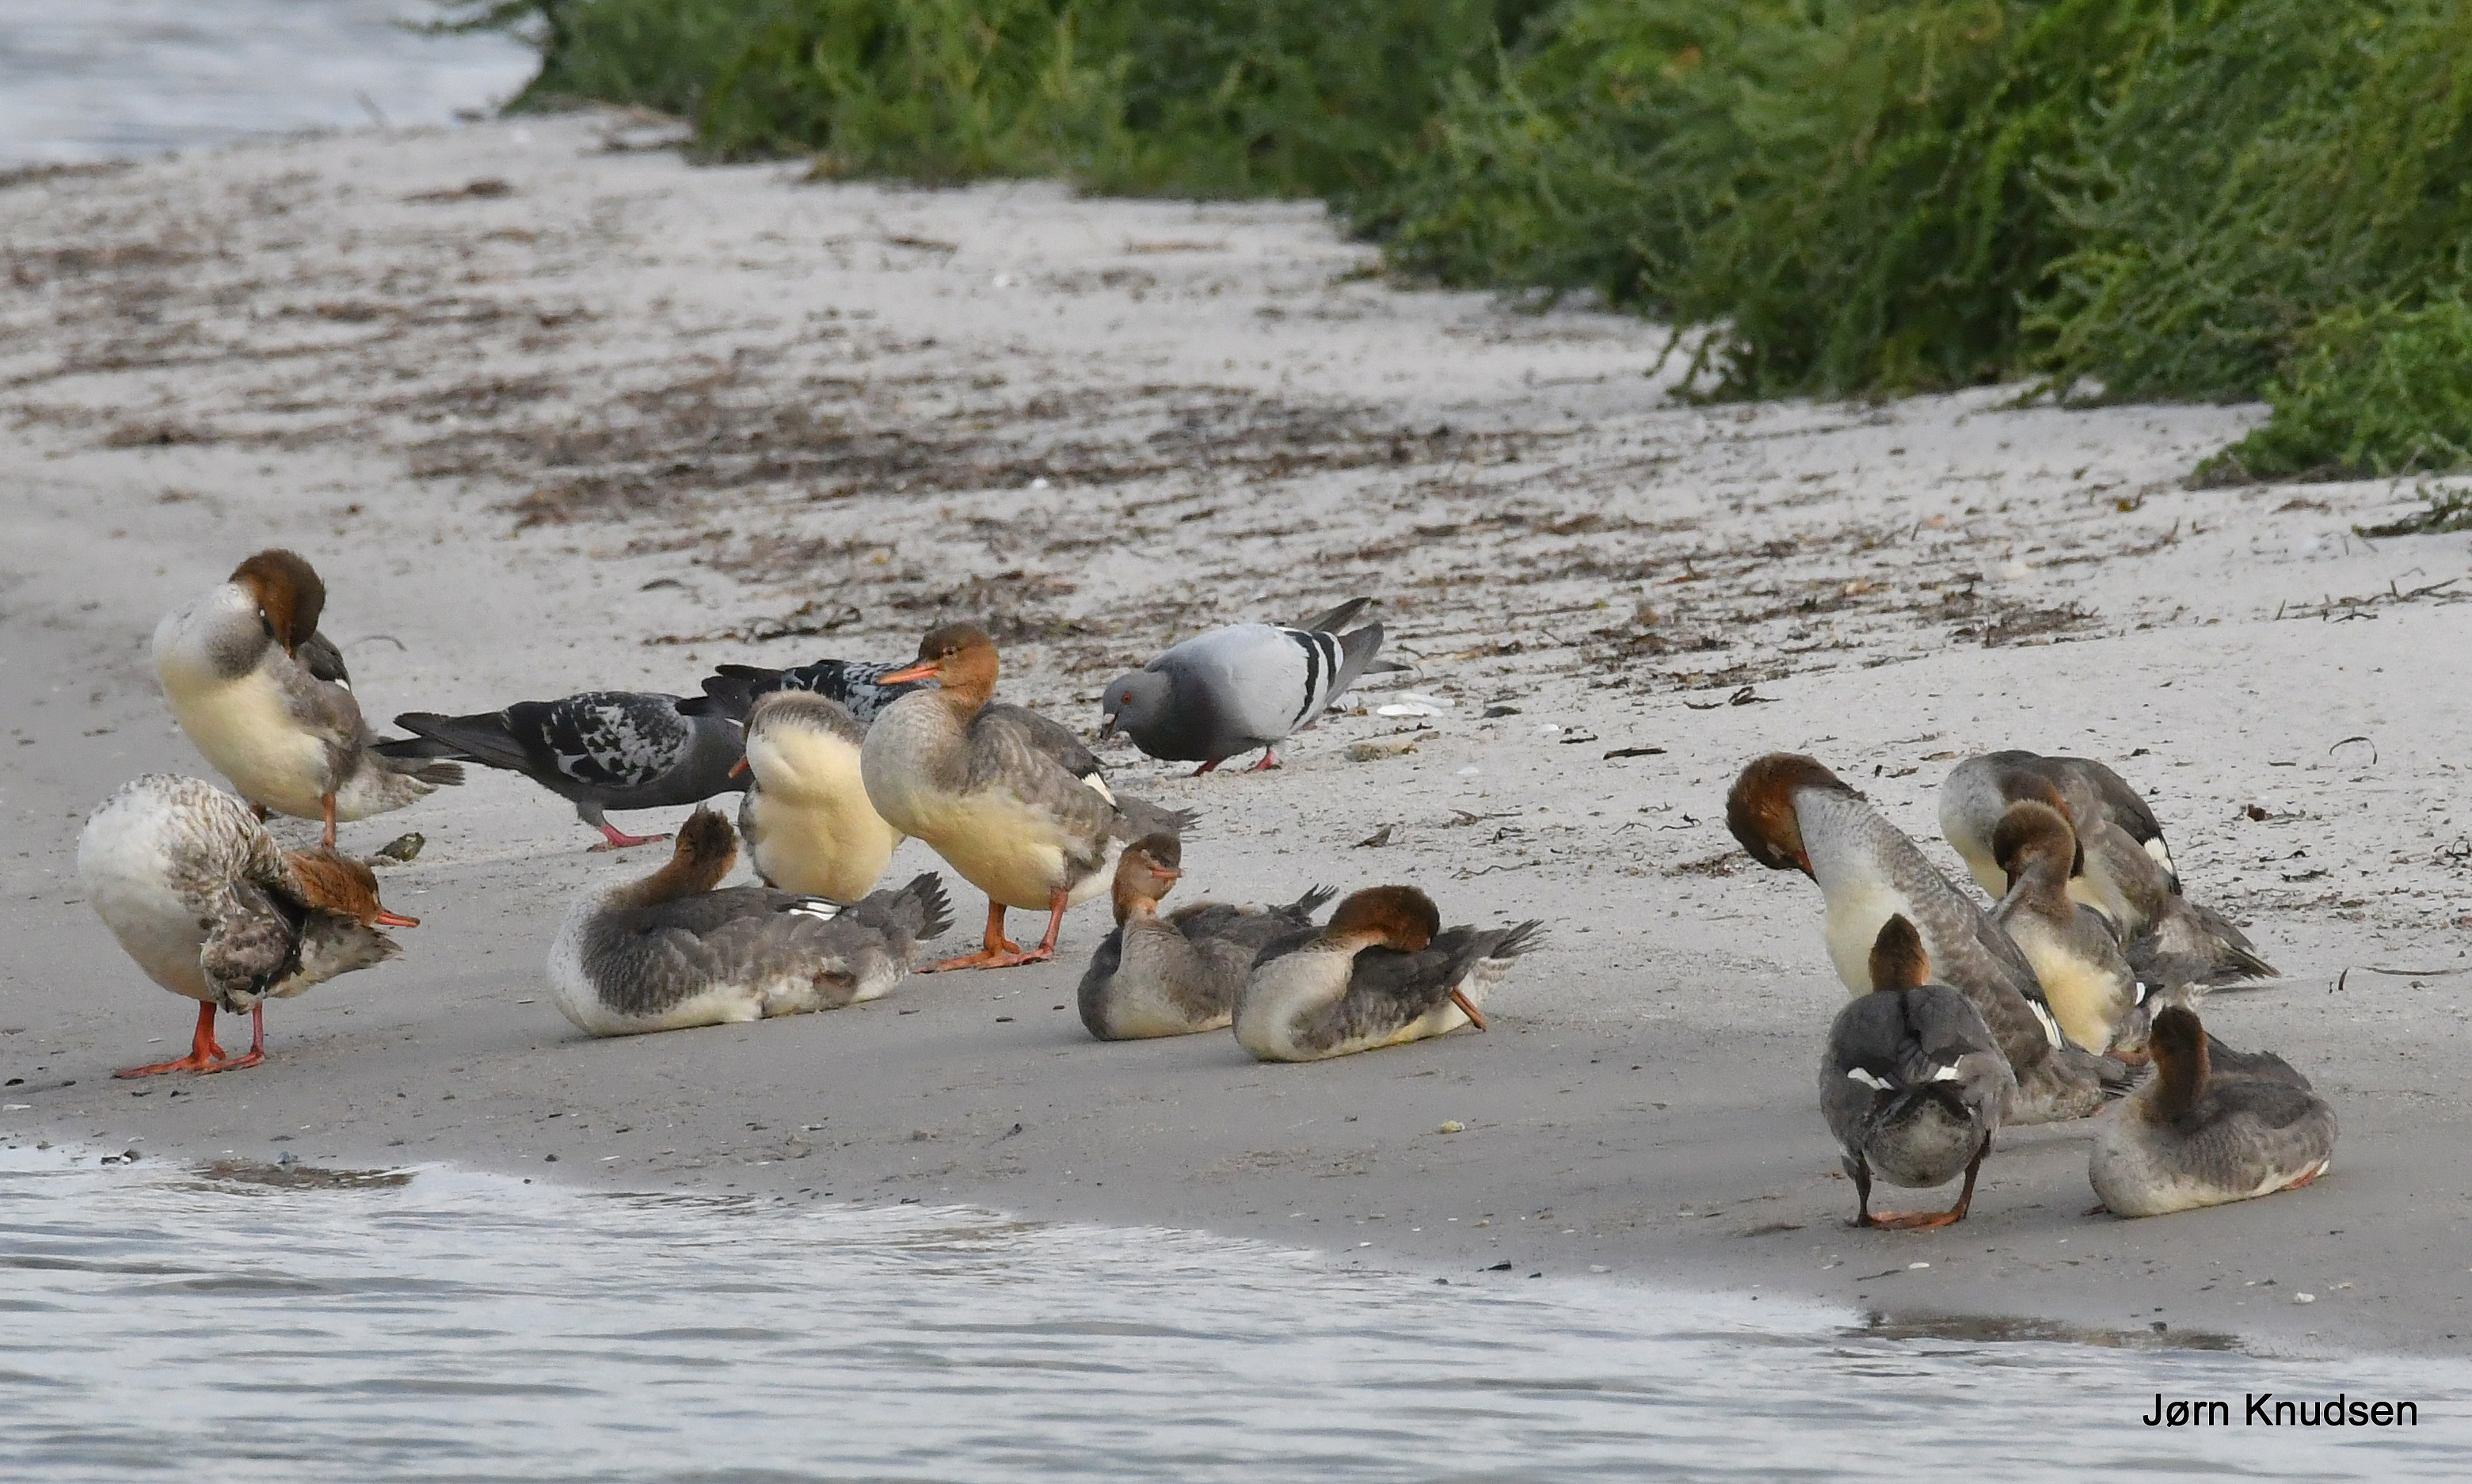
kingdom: Animalia
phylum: Chordata
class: Aves
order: Anseriformes
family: Anatidae
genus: Mergus
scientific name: Mergus serrator
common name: Toppet skallesluger
